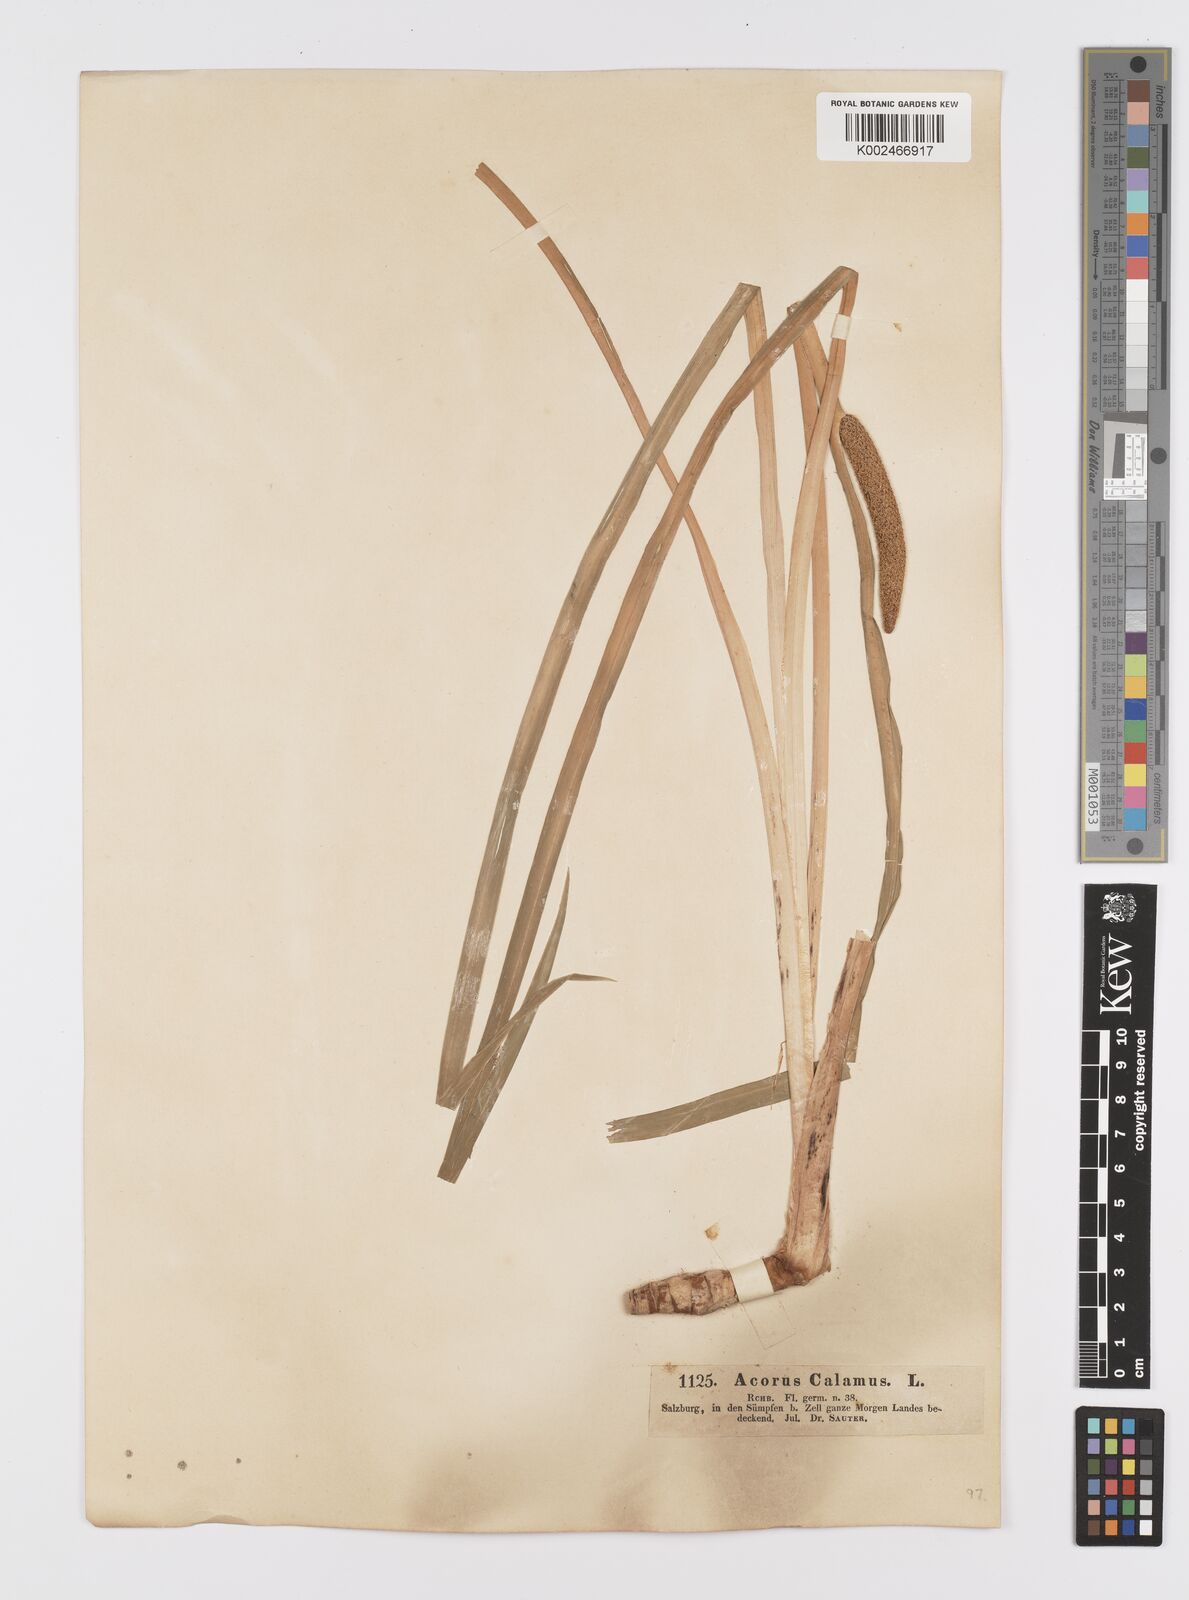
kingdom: Plantae
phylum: Tracheophyta
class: Liliopsida
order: Acorales
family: Acoraceae
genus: Acorus
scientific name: Acorus calamus
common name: Sweet-flag
